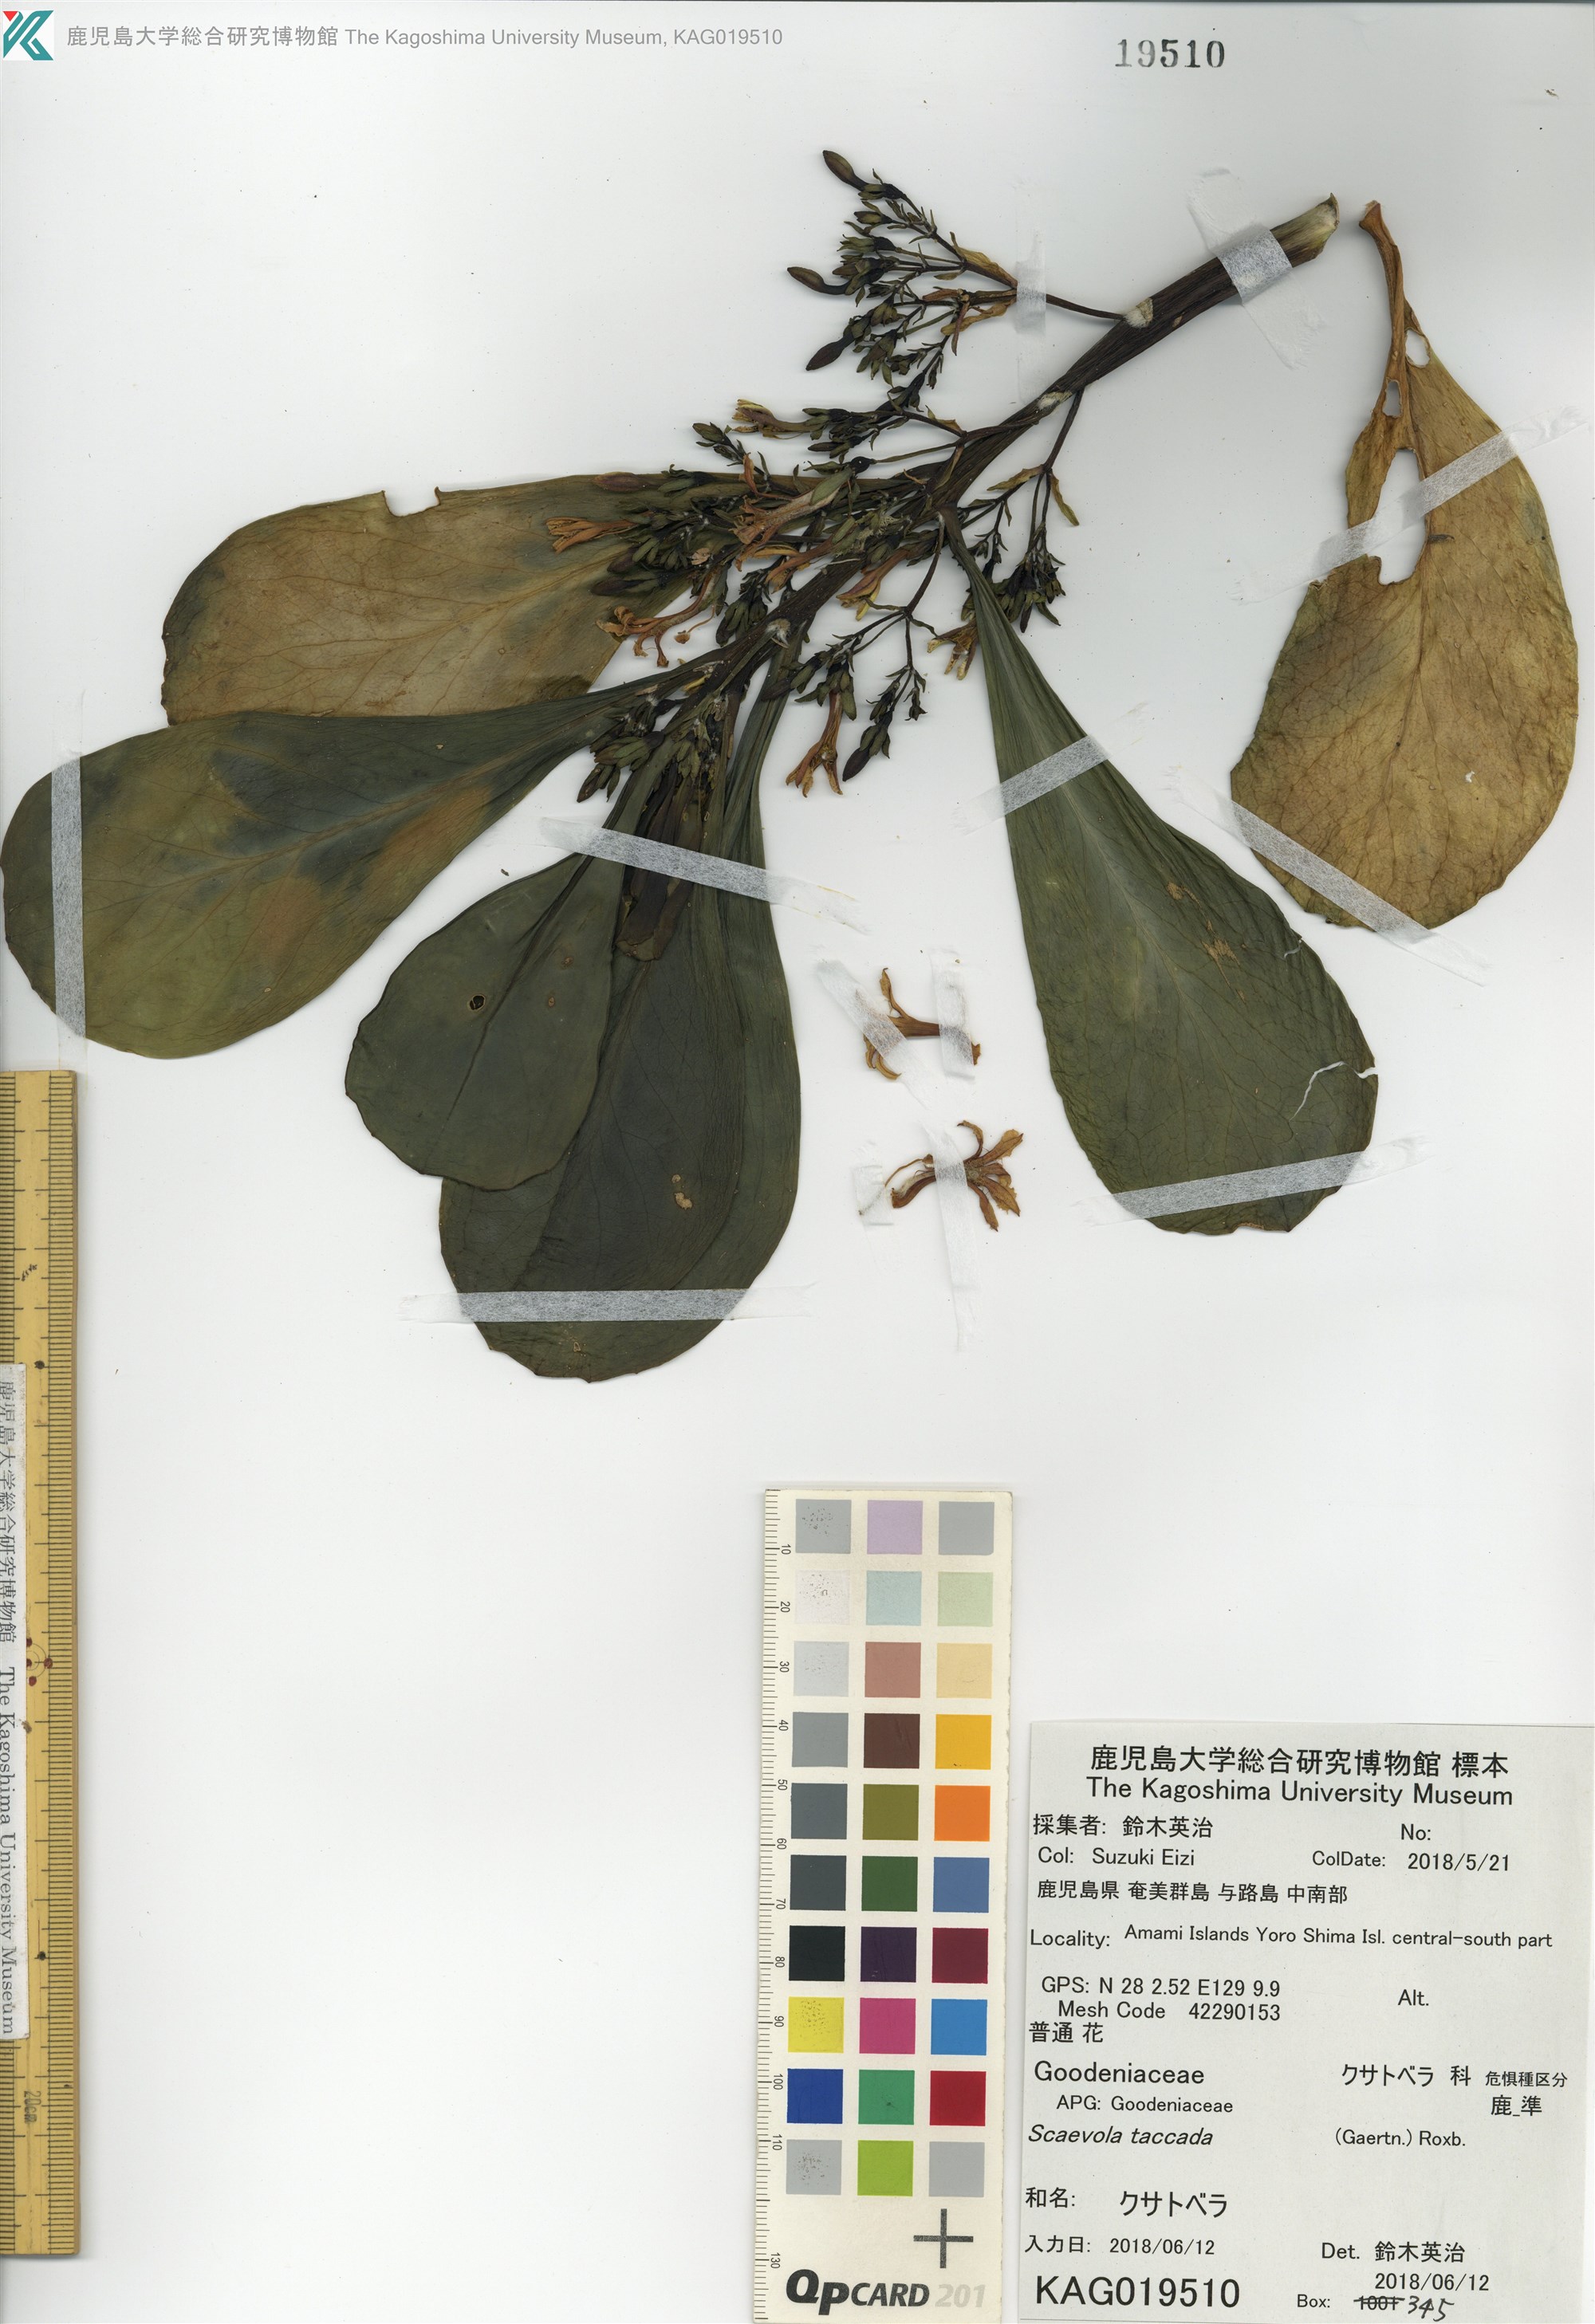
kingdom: Plantae
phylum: Tracheophyta
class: Magnoliopsida
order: Asterales
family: Goodeniaceae
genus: Scaevola
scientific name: Scaevola taccada
